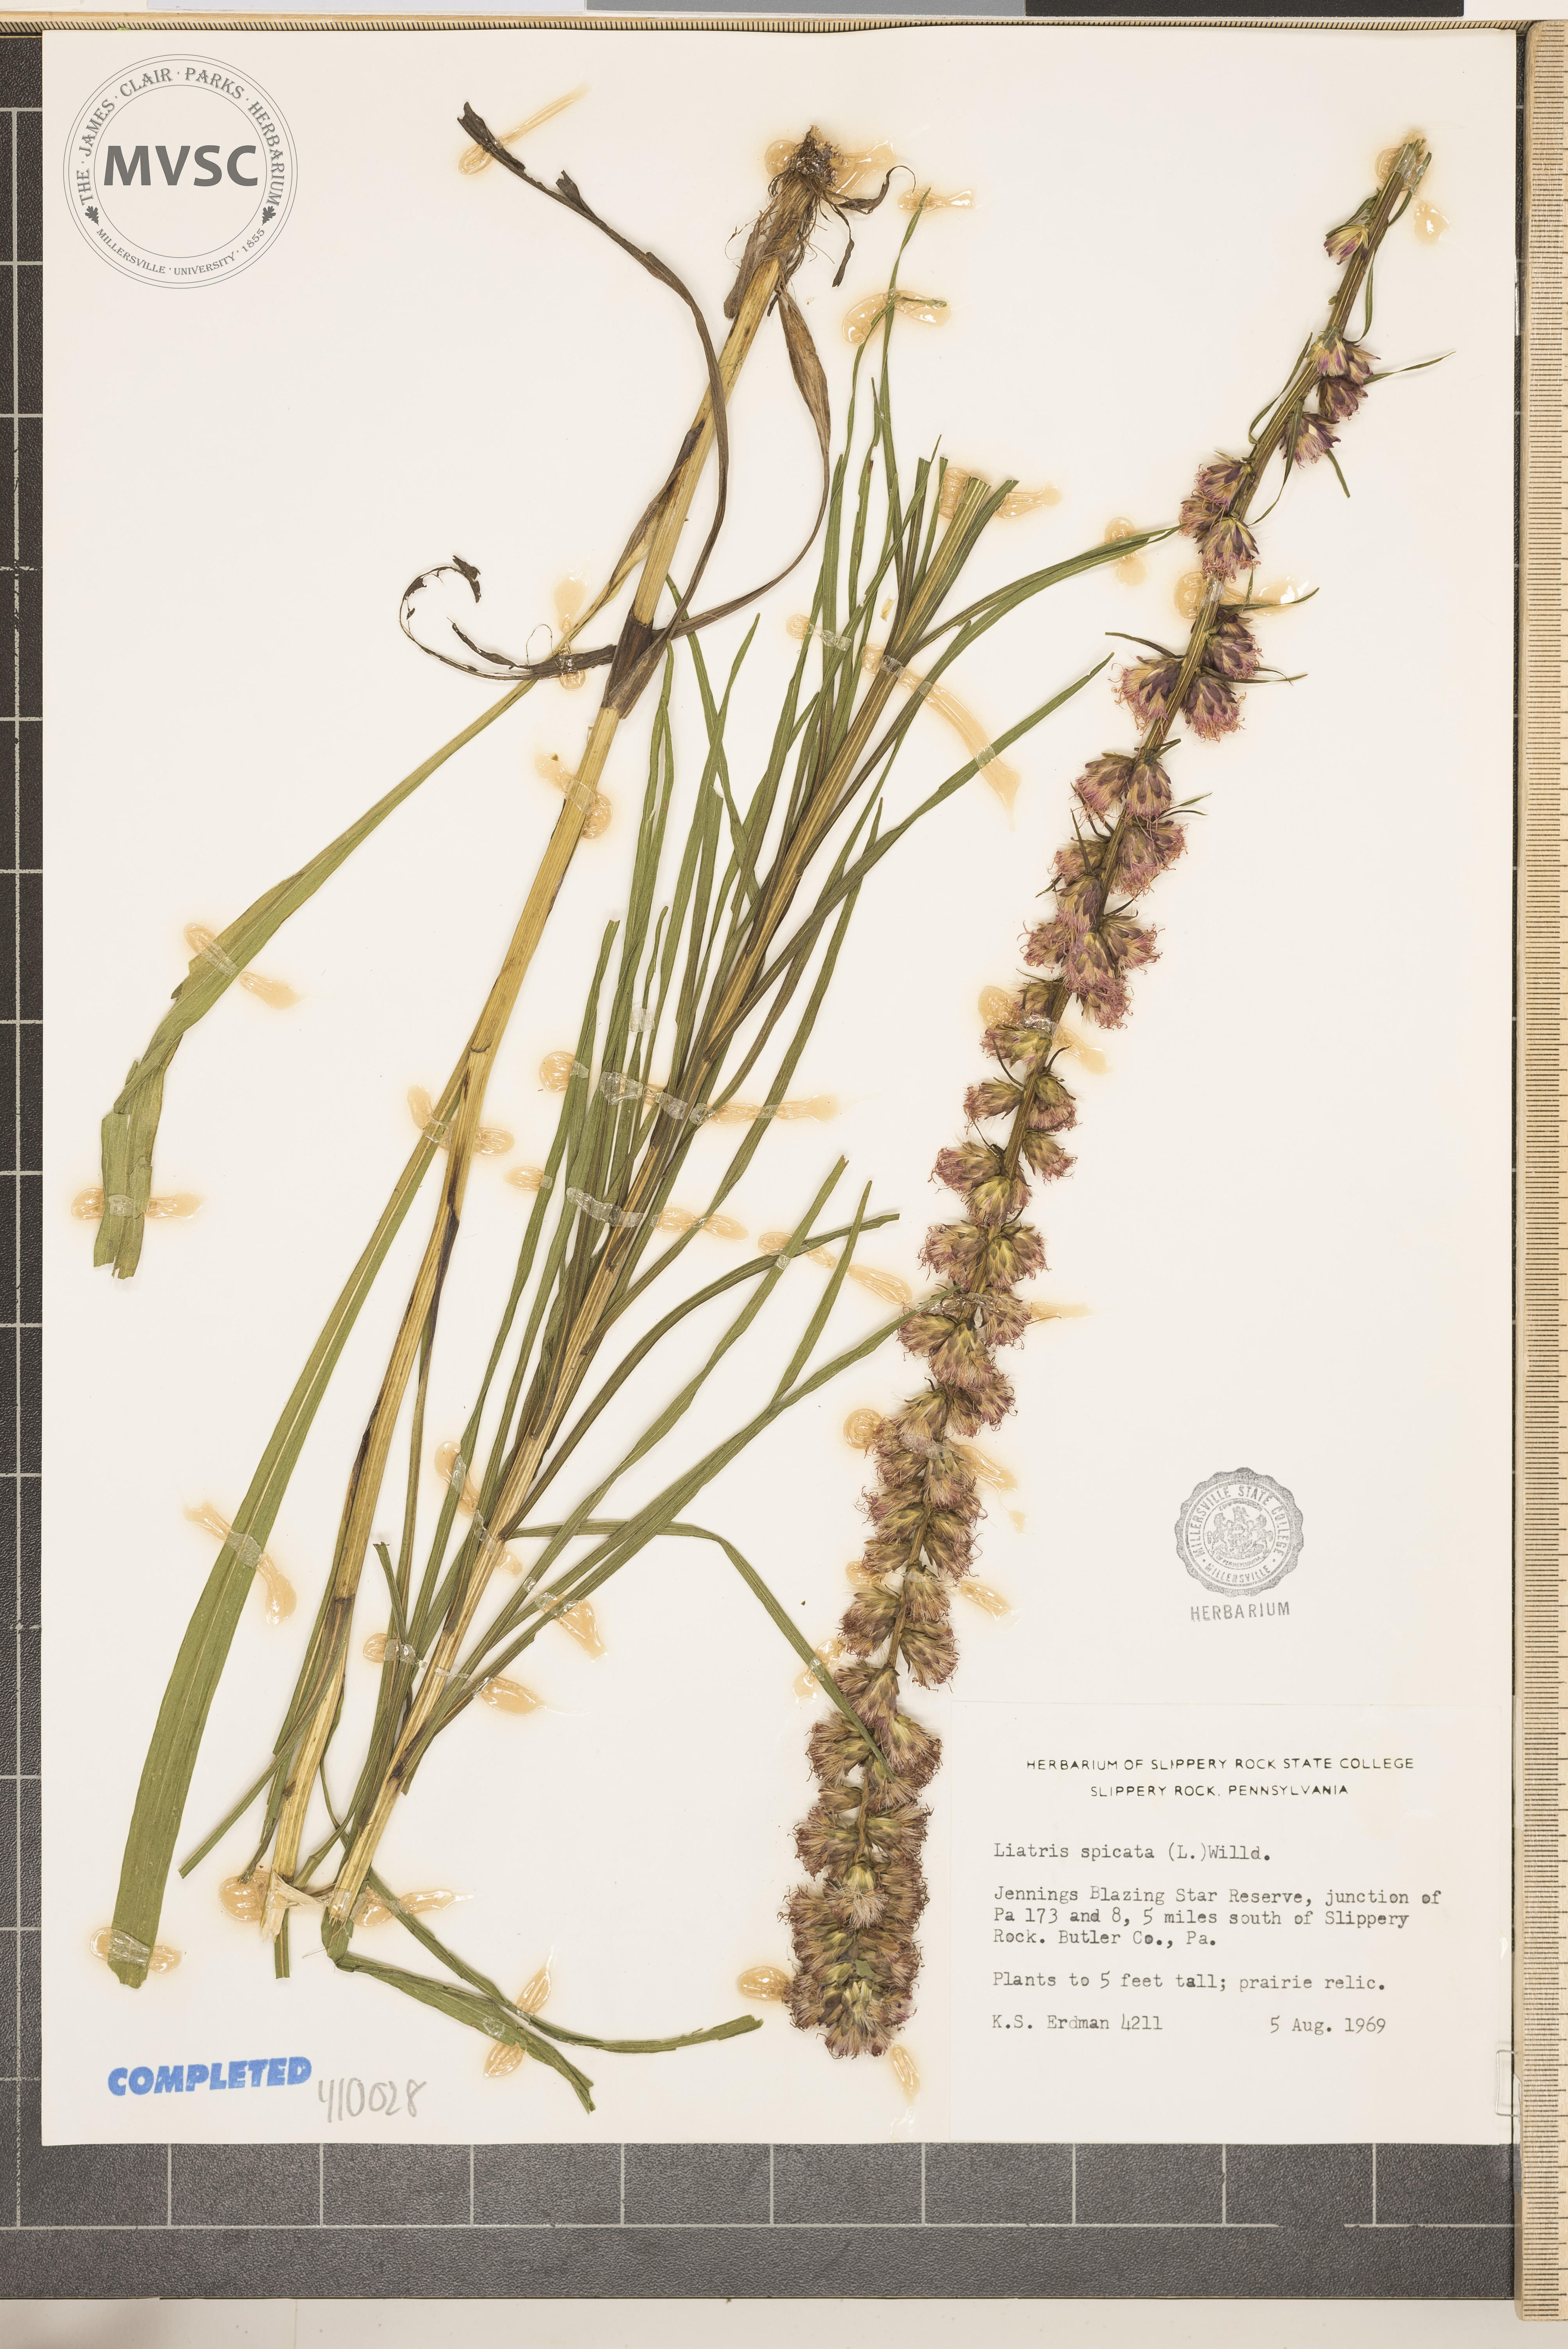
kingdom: Plantae
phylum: Tracheophyta
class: Magnoliopsida
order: Asterales
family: Asteraceae
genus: Liatris
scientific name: Liatris spicata
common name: Florist gayfeather
